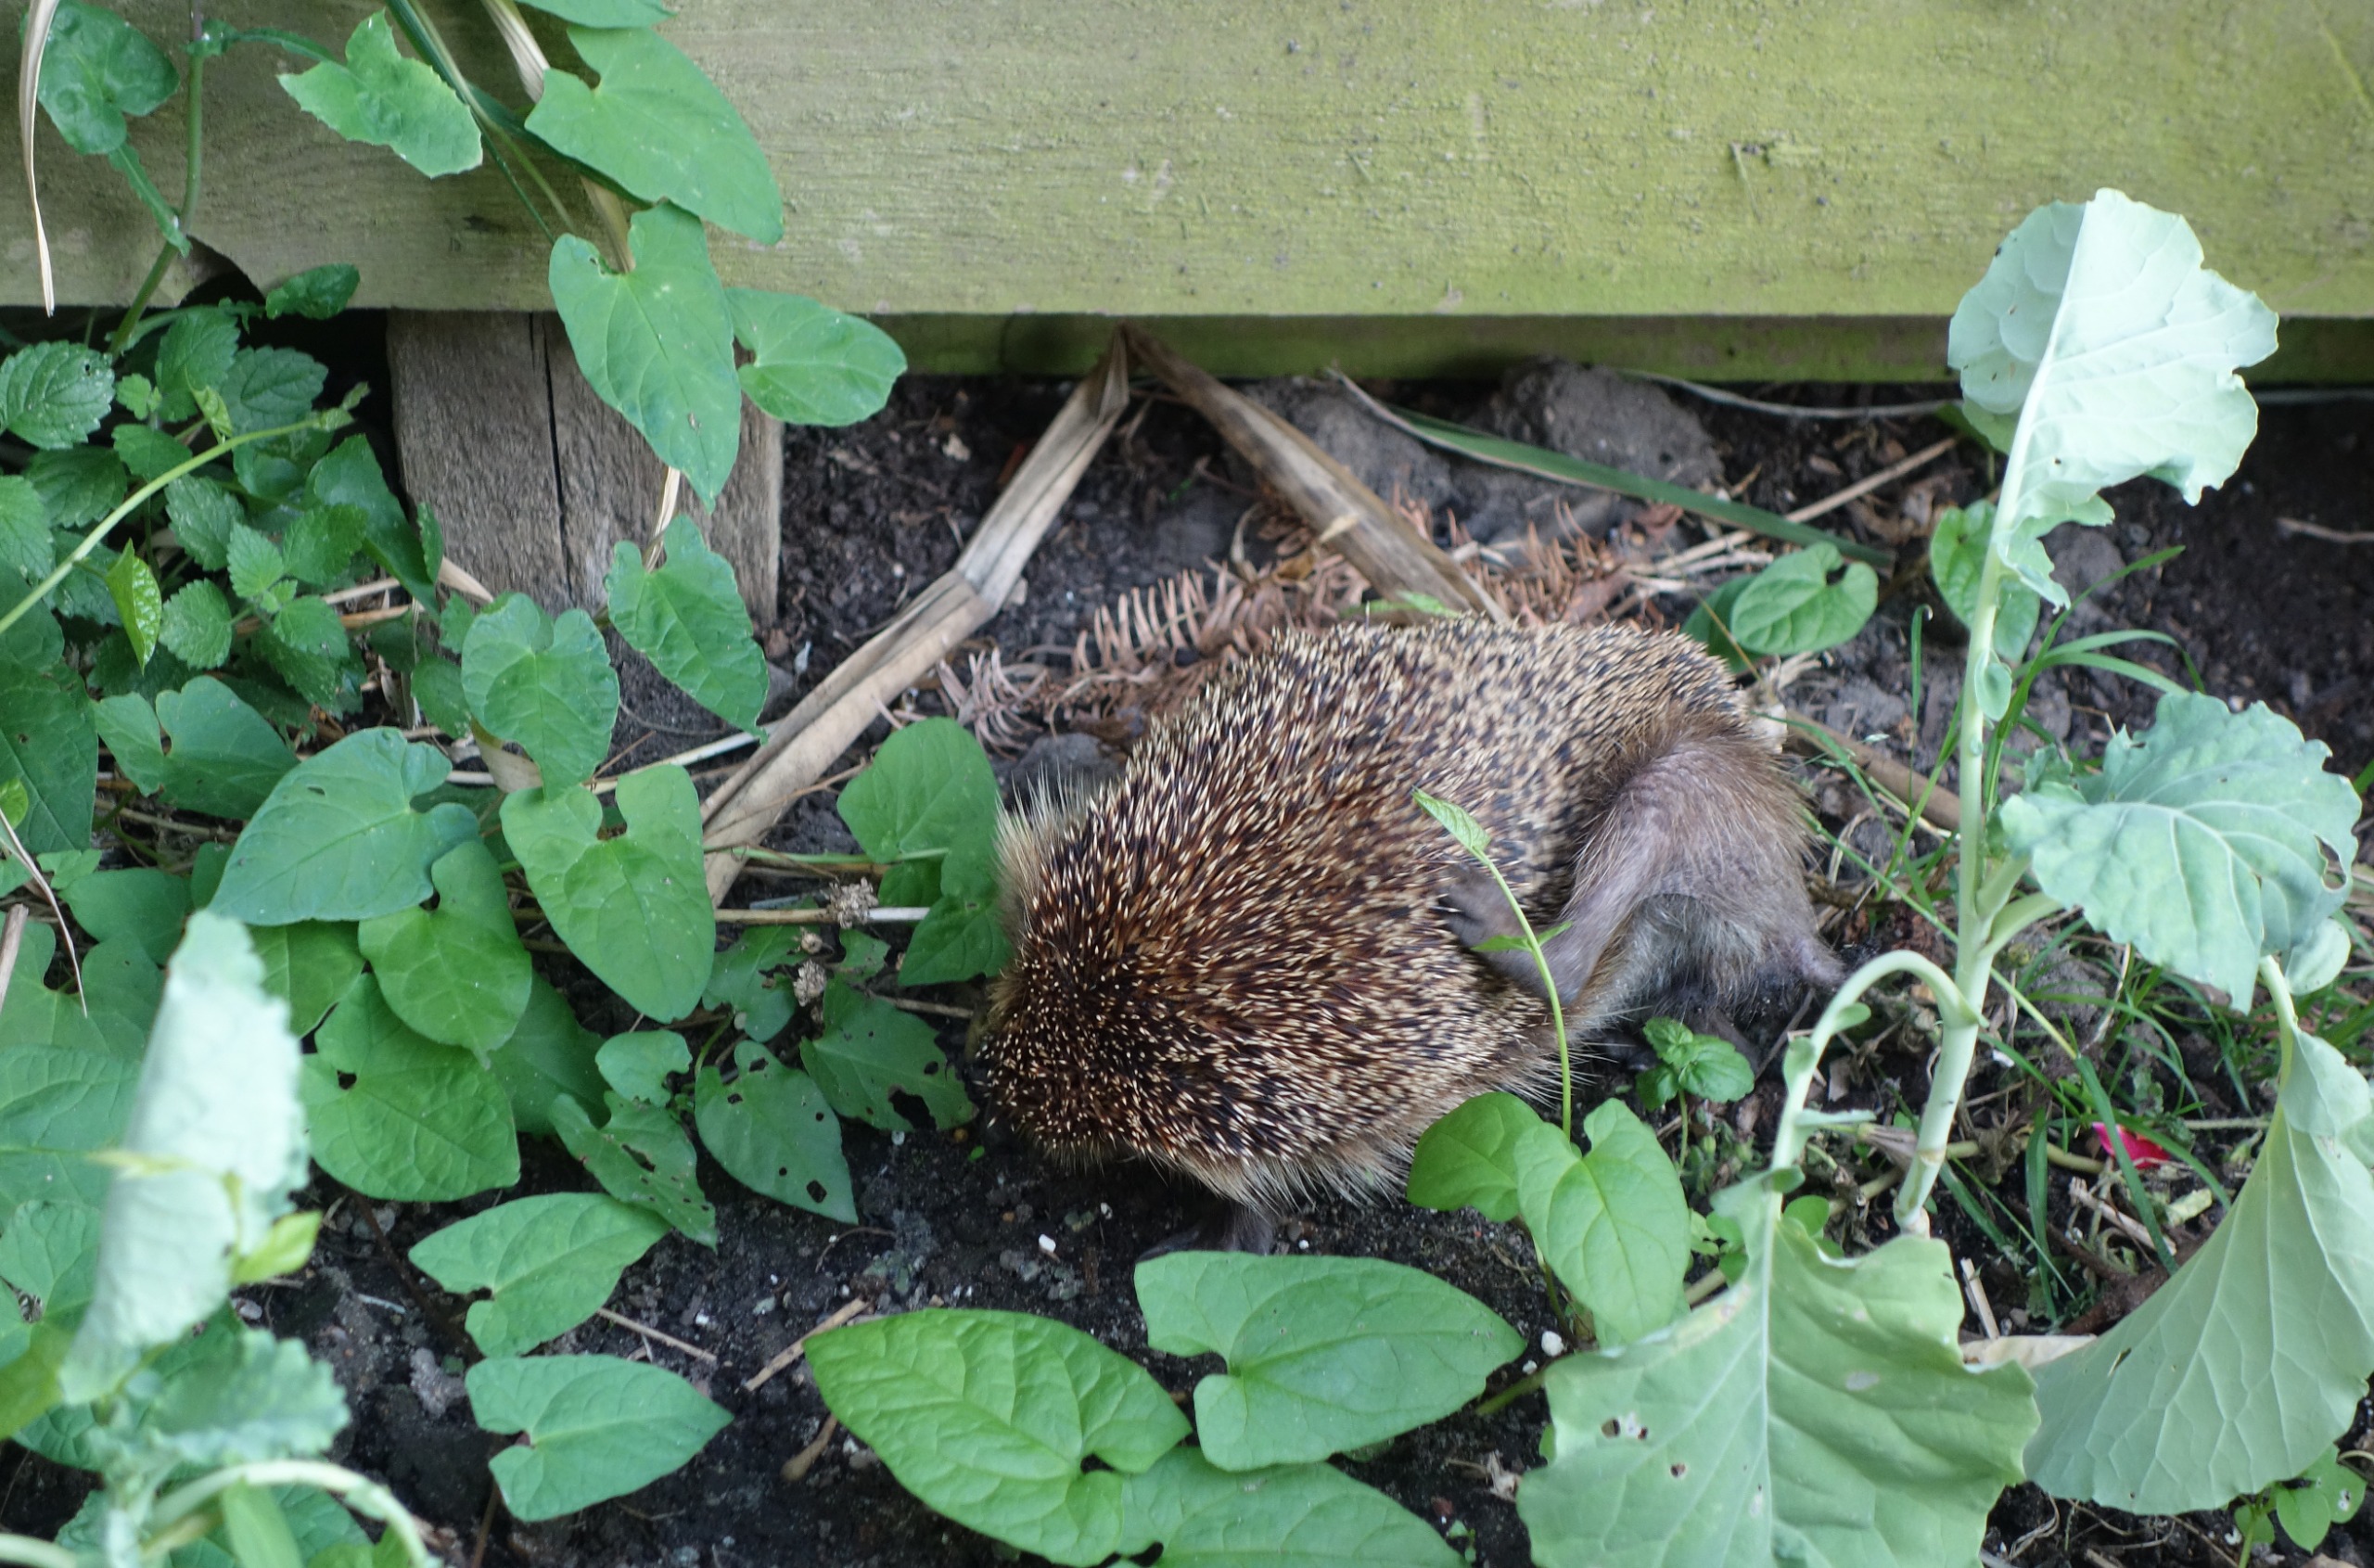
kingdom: Animalia
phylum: Chordata
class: Mammalia
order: Erinaceomorpha
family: Erinaceidae
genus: Erinaceus
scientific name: Erinaceus europaeus
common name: Pindsvin
